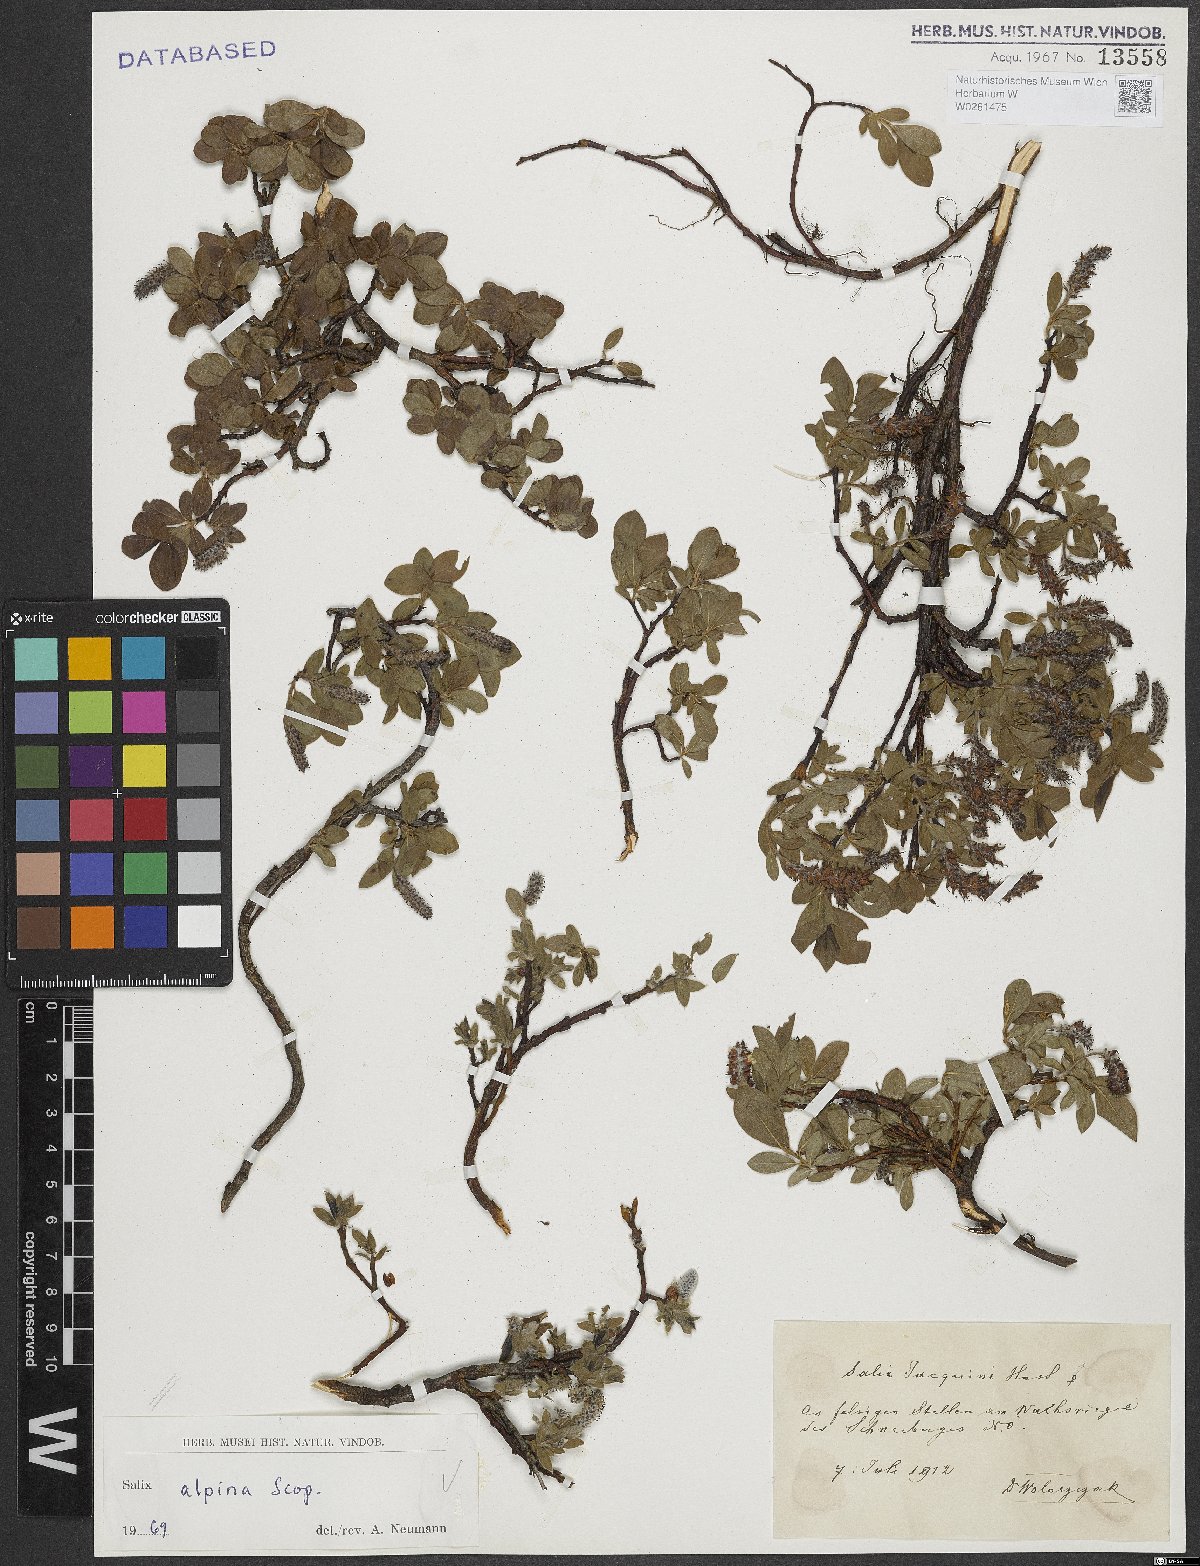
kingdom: Plantae
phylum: Tracheophyta
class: Magnoliopsida
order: Malpighiales
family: Salicaceae
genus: Salix
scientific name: Salix alpina
